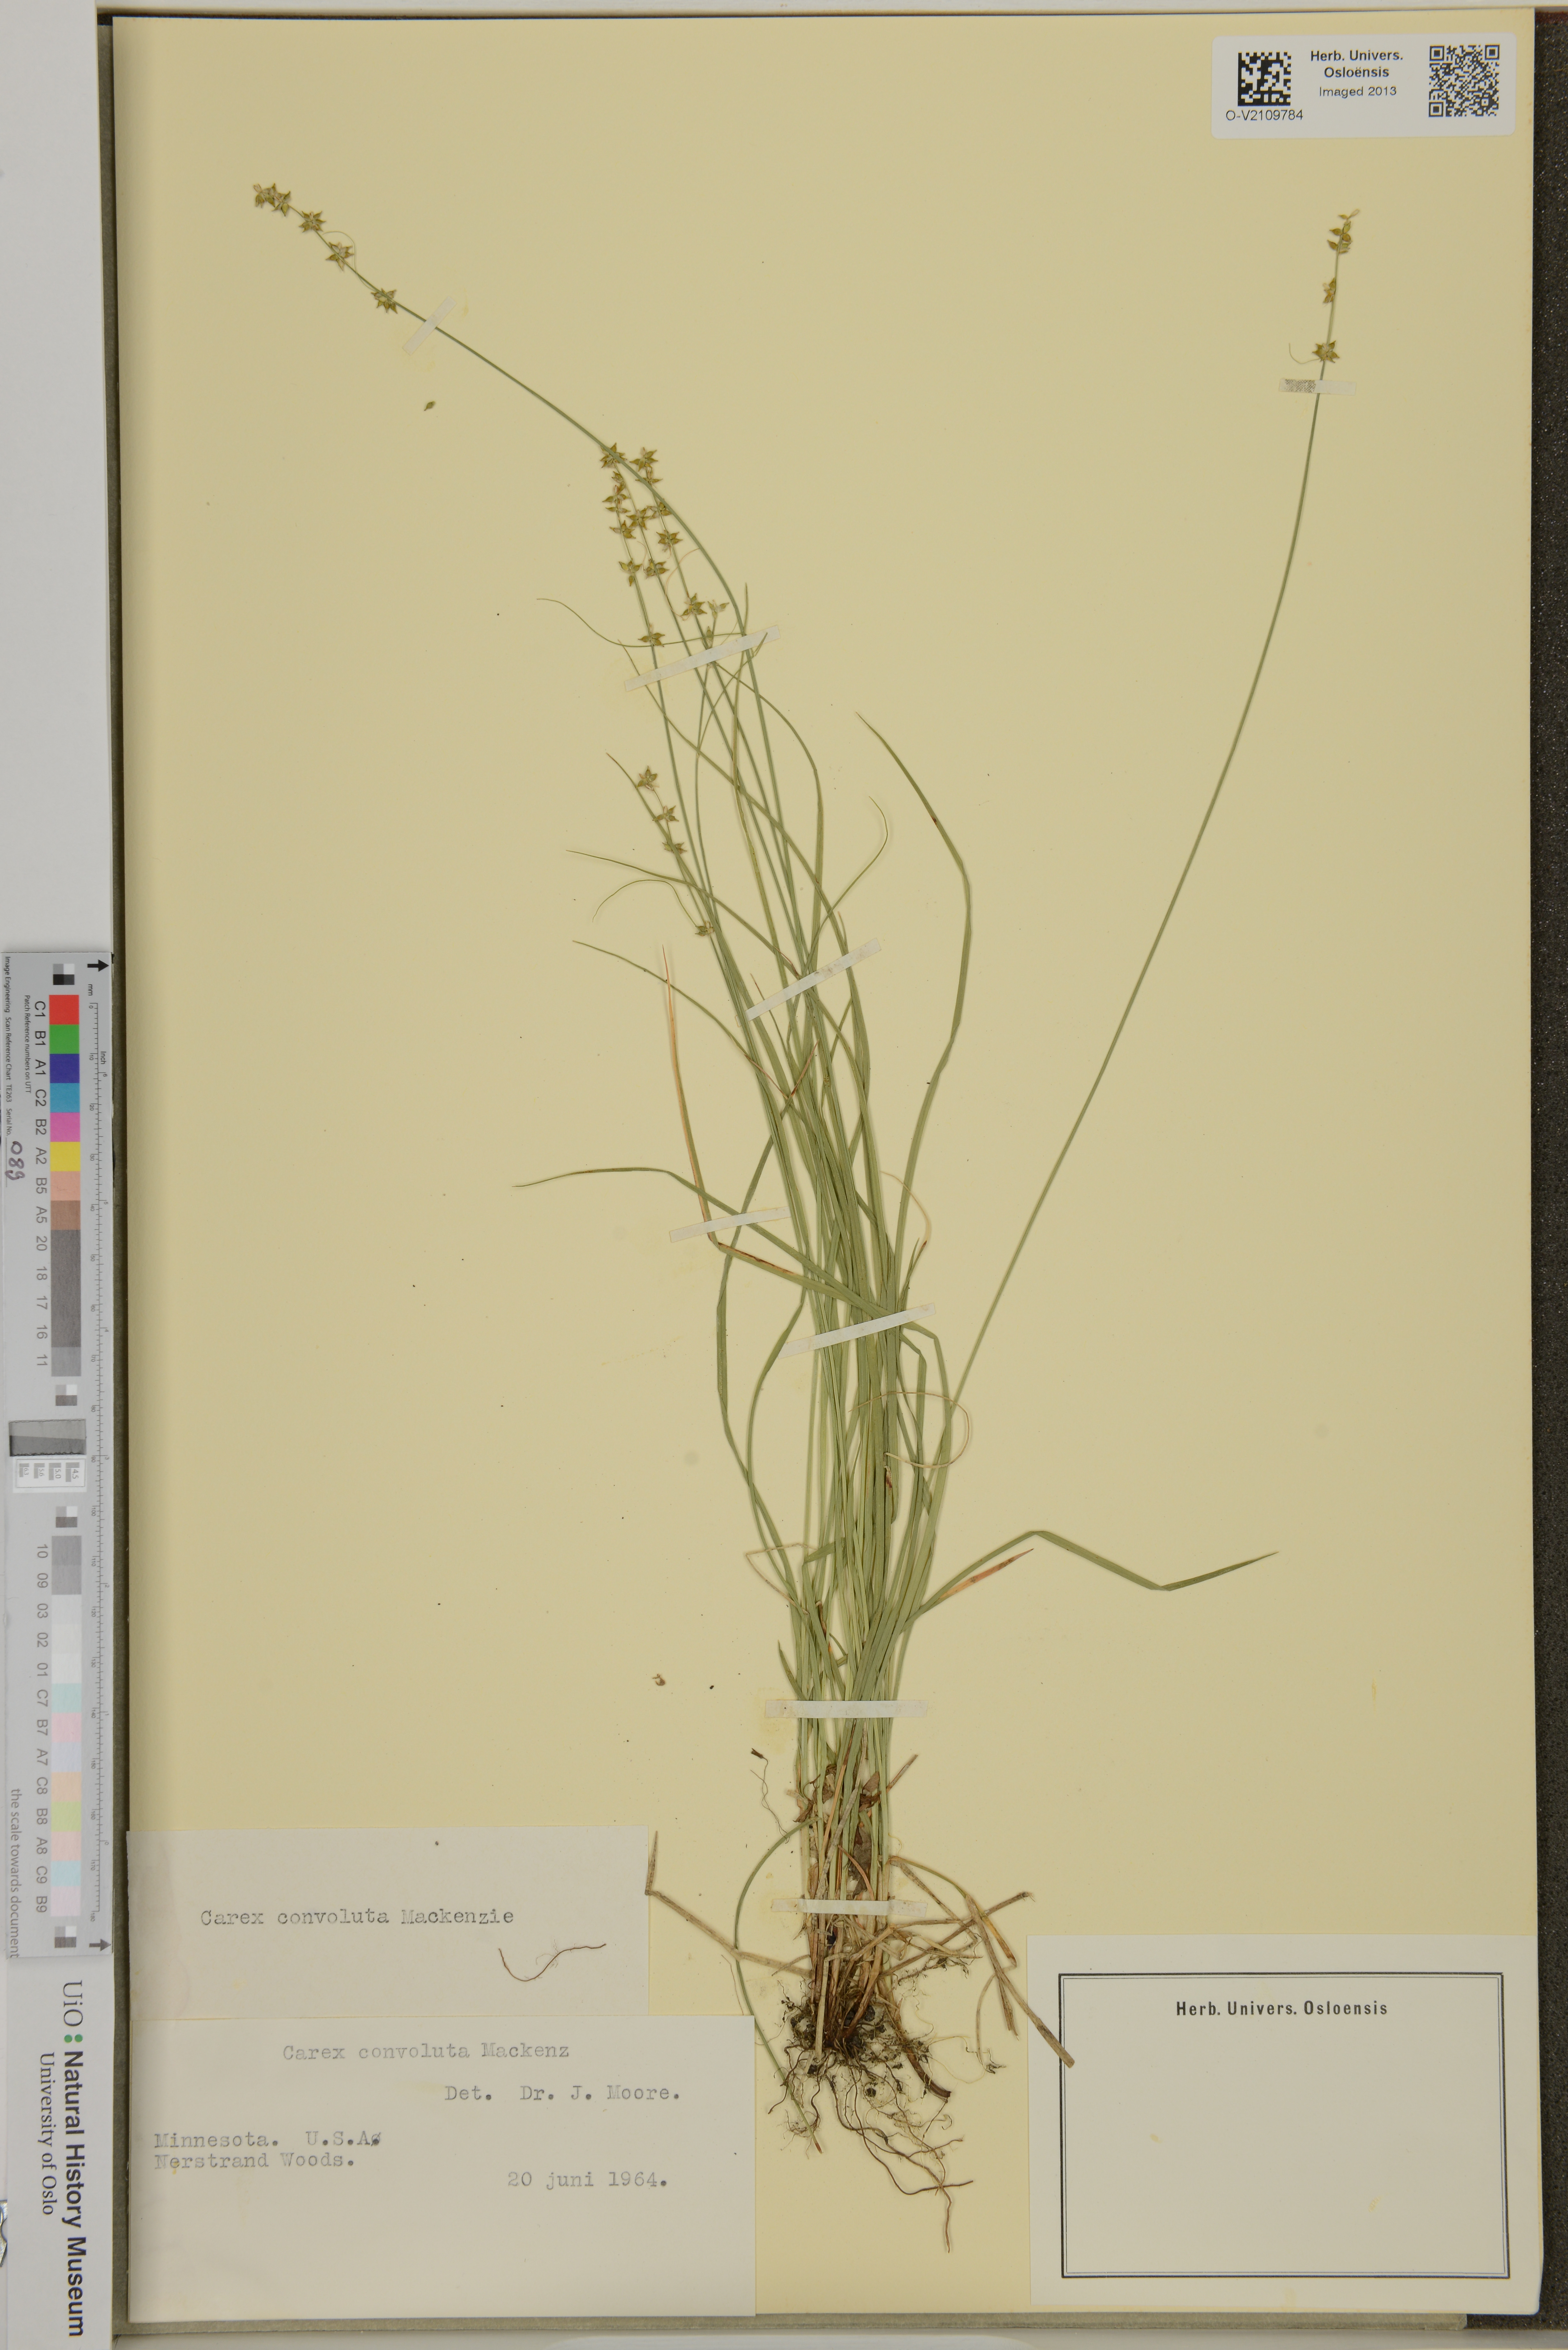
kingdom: Plantae
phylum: Tracheophyta
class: Liliopsida
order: Poales
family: Cyperaceae
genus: Carex
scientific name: Carex rosea
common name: Curly-styled wood sedge
